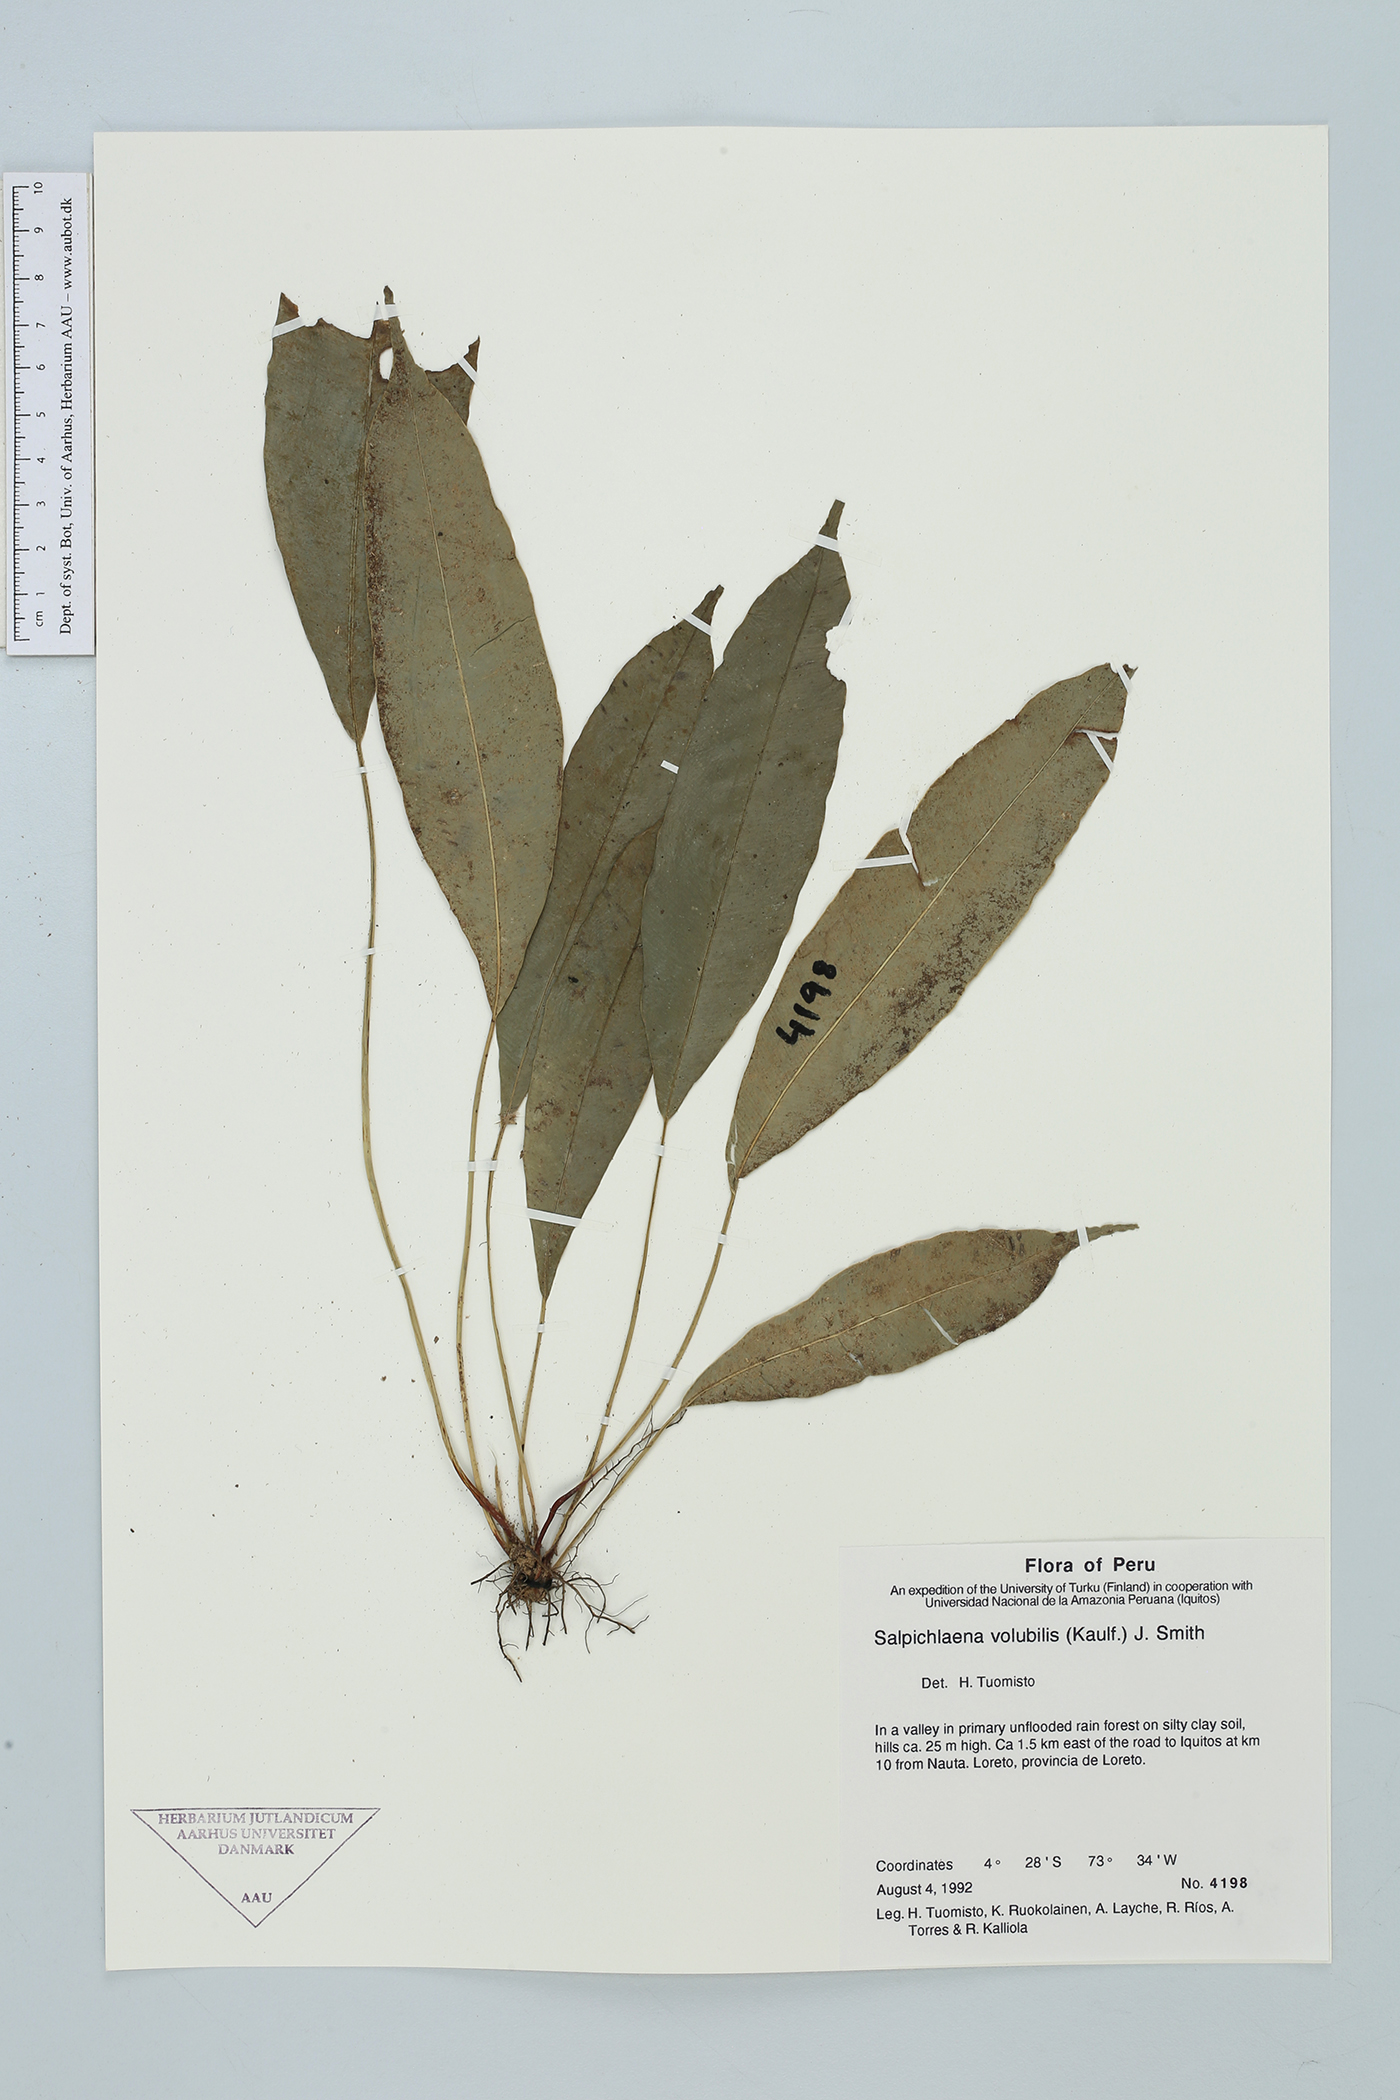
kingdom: Plantae
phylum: Tracheophyta
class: Polypodiopsida
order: Polypodiales
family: Blechnaceae
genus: Salpichlaena
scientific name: Salpichlaena volubilis
